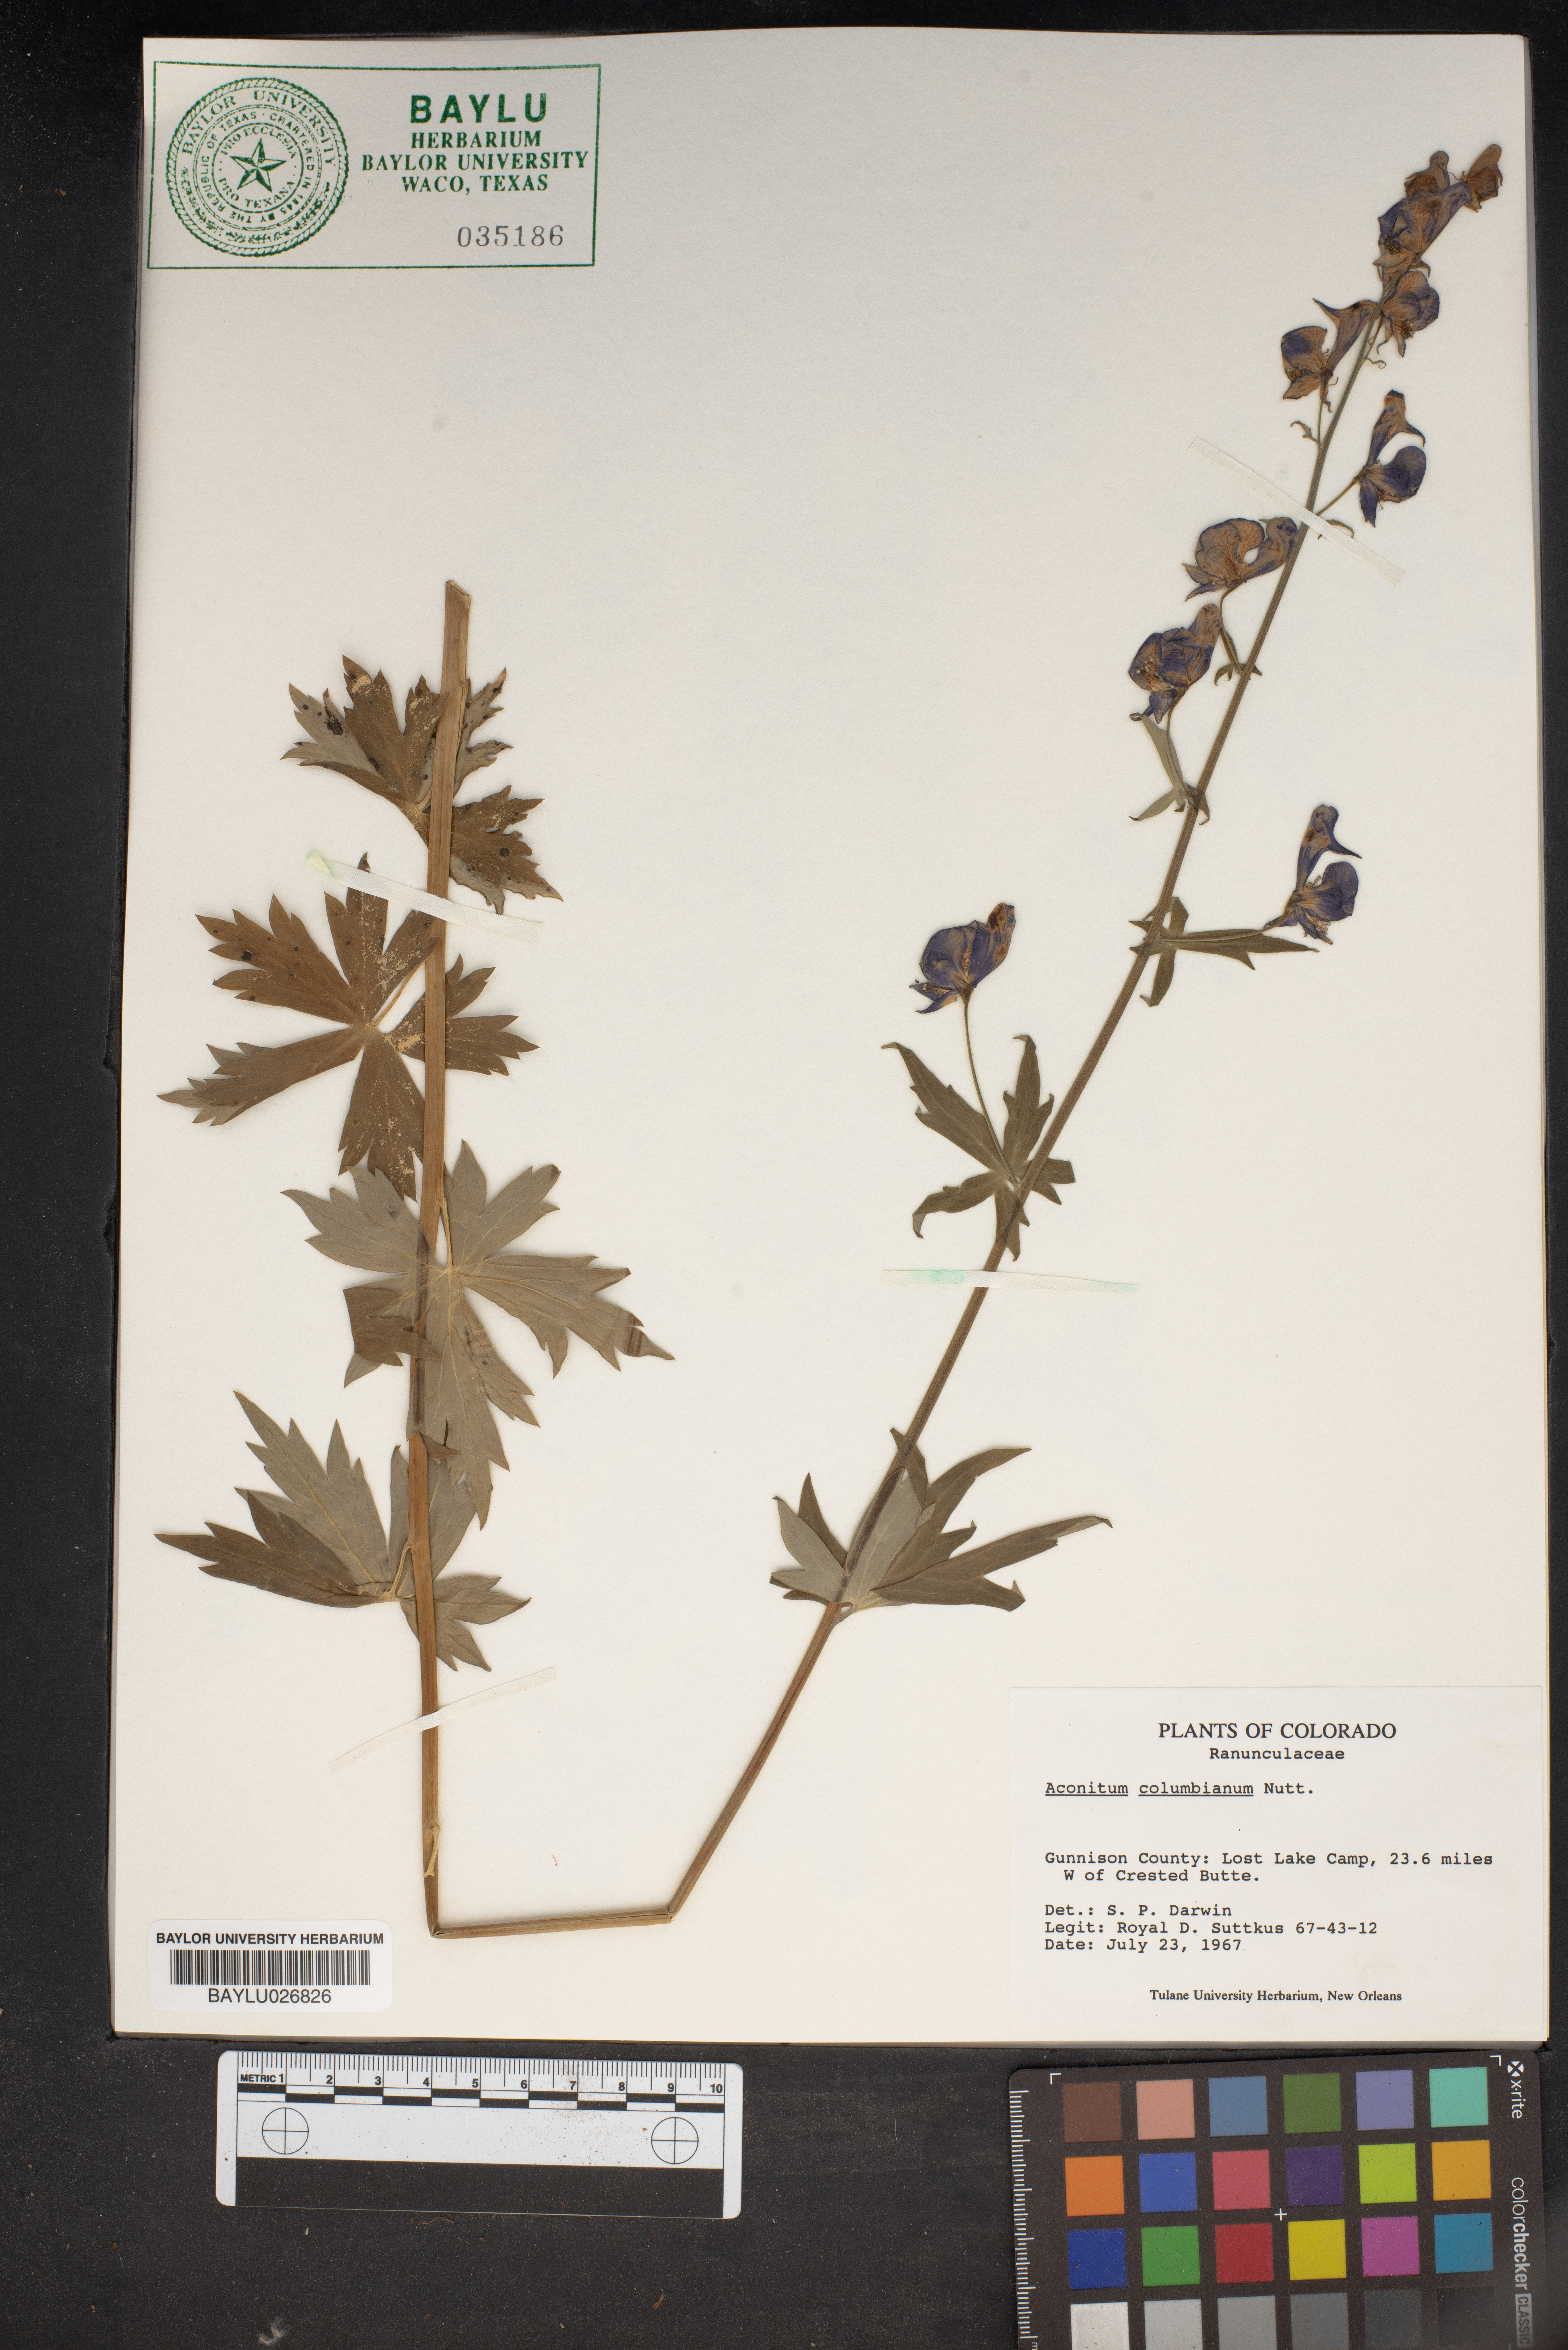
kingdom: Plantae
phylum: Tracheophyta
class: Magnoliopsida
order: Ranunculales
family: Ranunculaceae
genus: Aconitum
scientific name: Aconitum columbianum
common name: Columbia aconite
